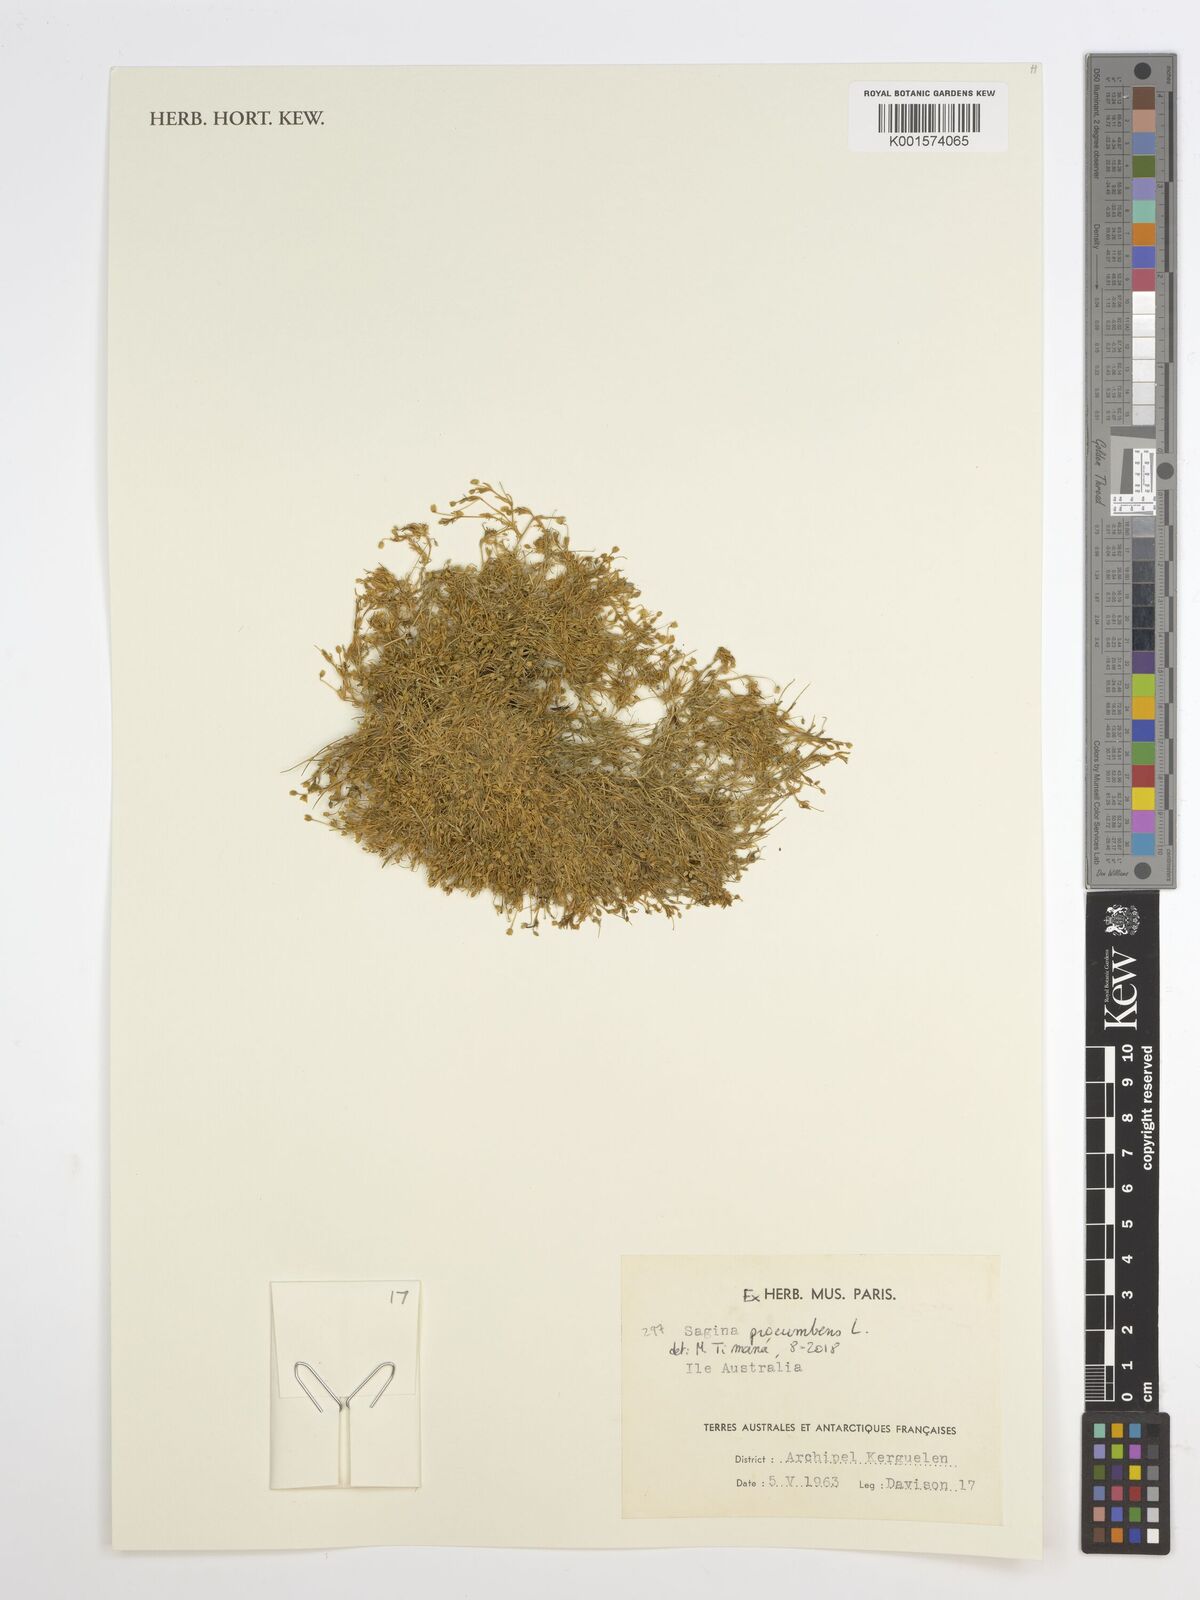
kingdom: Plantae
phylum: Tracheophyta
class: Magnoliopsida
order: Caryophyllales
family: Caryophyllaceae
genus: Sagina
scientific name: Sagina procumbens
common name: Procumbent pearlwort
